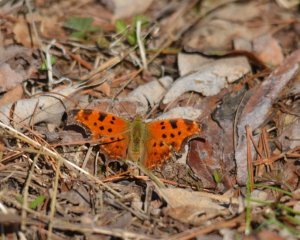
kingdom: Animalia
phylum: Arthropoda
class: Insecta
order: Lepidoptera
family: Nymphalidae
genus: Polygonia
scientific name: Polygonia comma
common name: Eastern Comma
